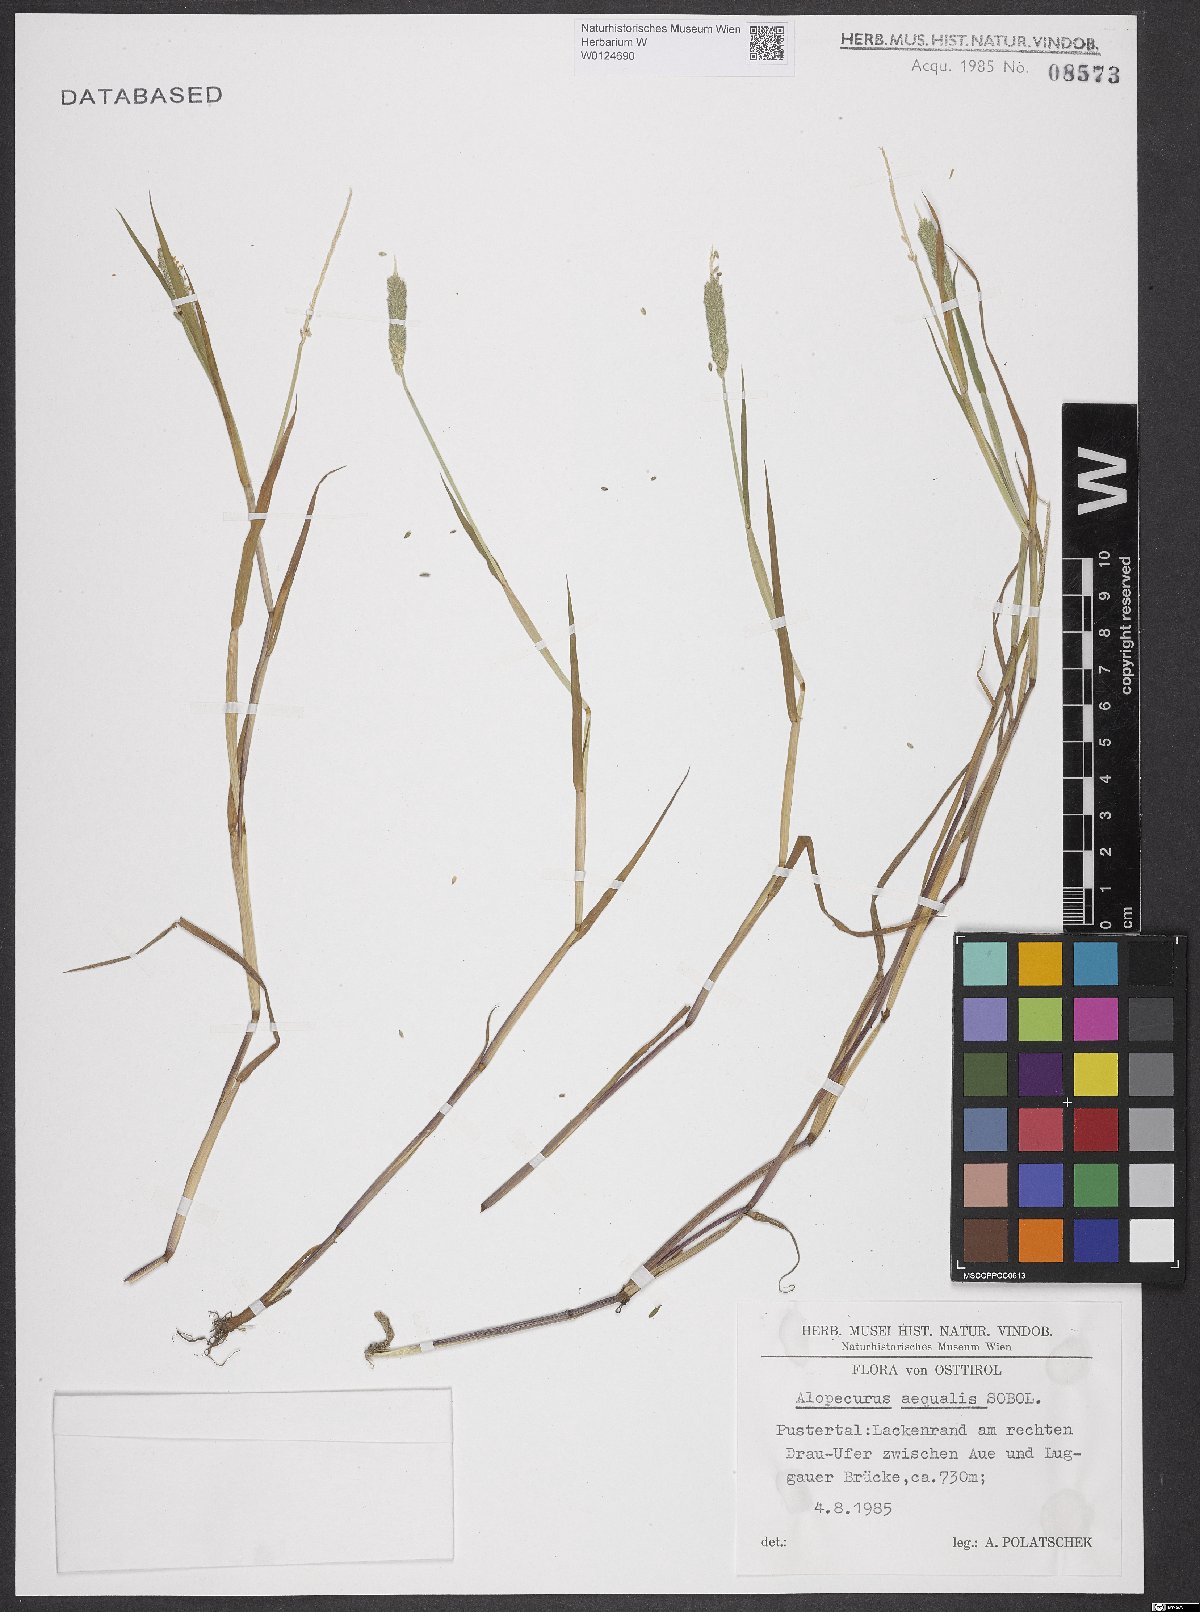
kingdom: Plantae
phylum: Tracheophyta
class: Liliopsida
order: Poales
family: Poaceae
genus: Alopecurus
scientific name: Alopecurus aequalis
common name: Orange foxtail
